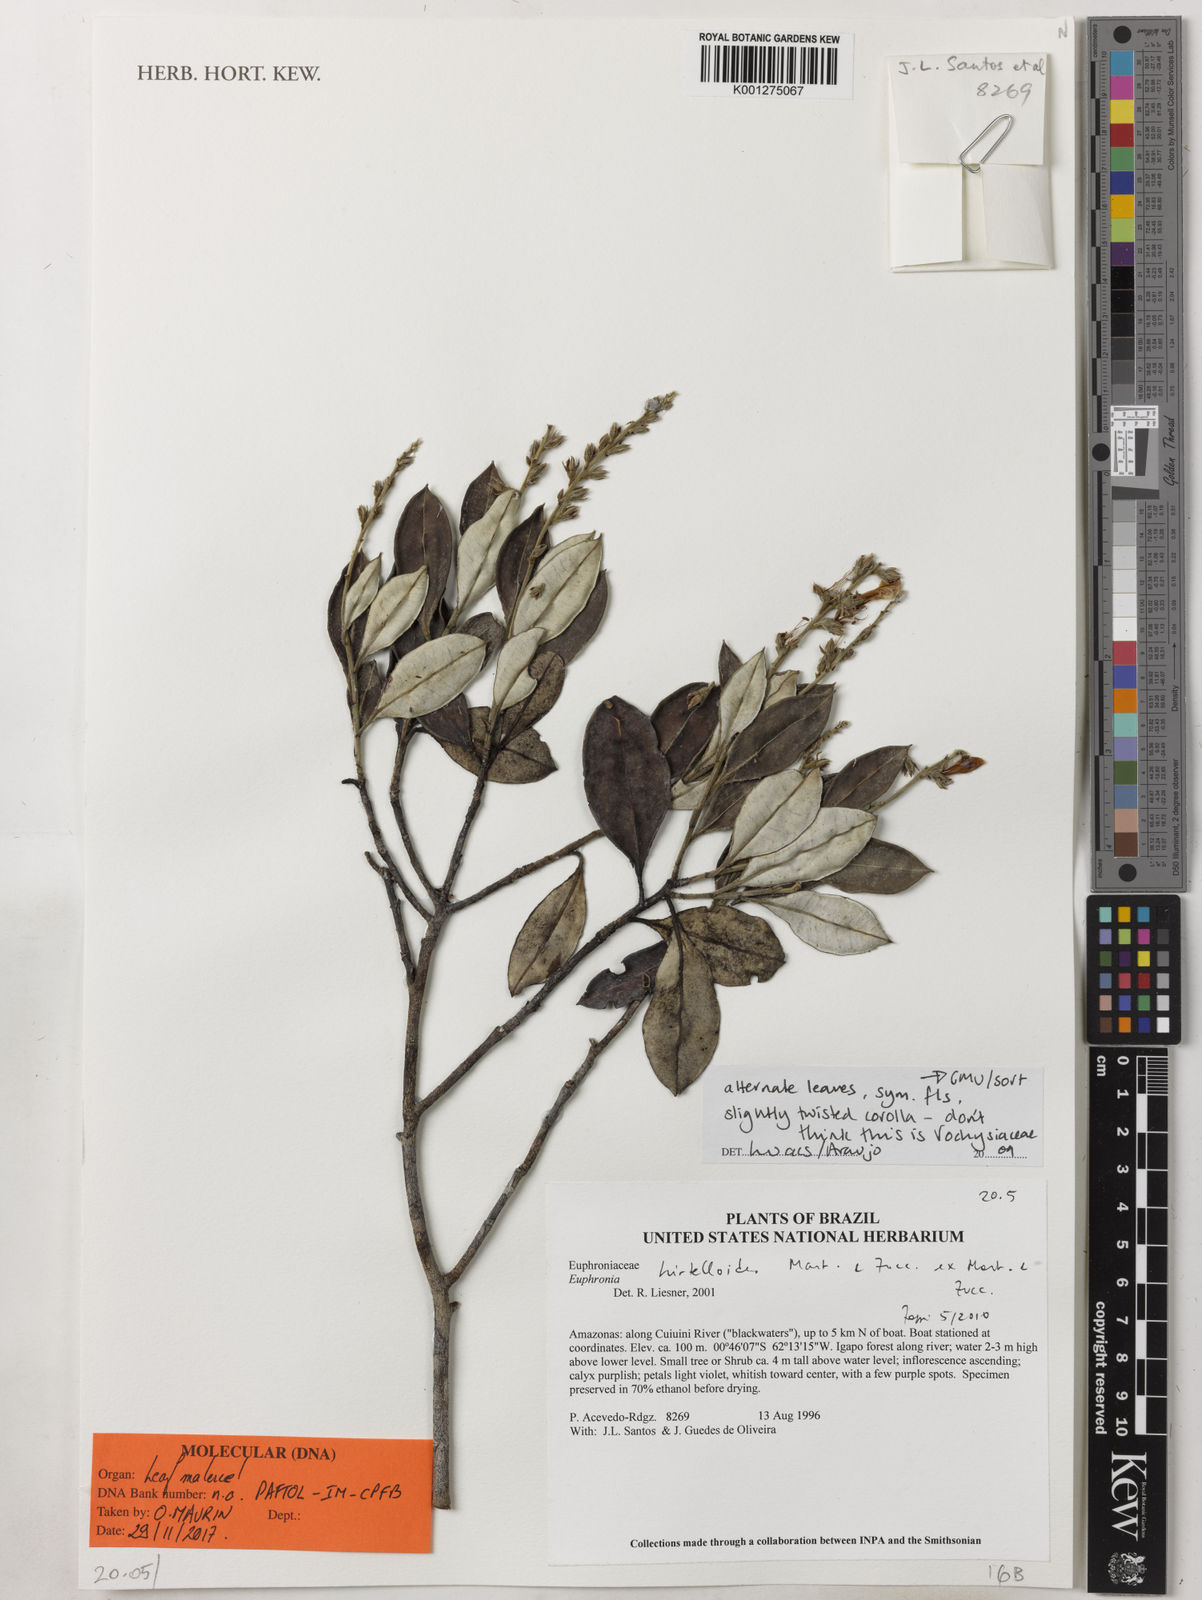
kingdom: Plantae
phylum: Tracheophyta
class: Magnoliopsida
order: Malpighiales
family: Euphroniaceae
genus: Euphronia
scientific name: Euphronia hirtelloides
